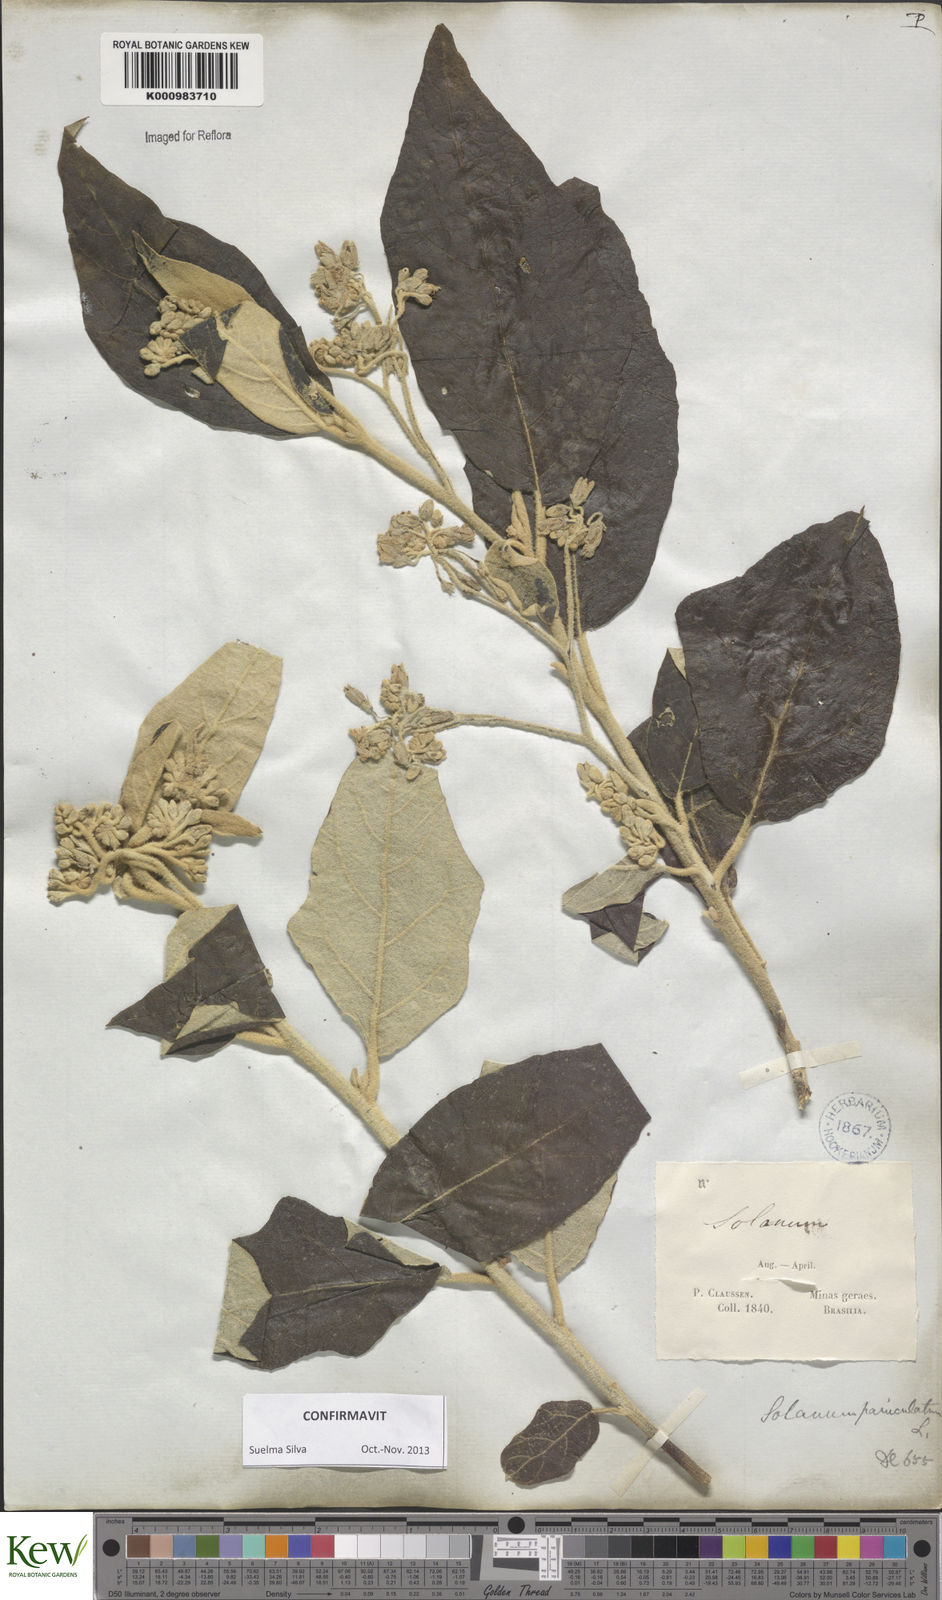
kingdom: Plantae
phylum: Tracheophyta
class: Magnoliopsida
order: Solanales
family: Solanaceae
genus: Solanum
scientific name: Solanum paniculatum
